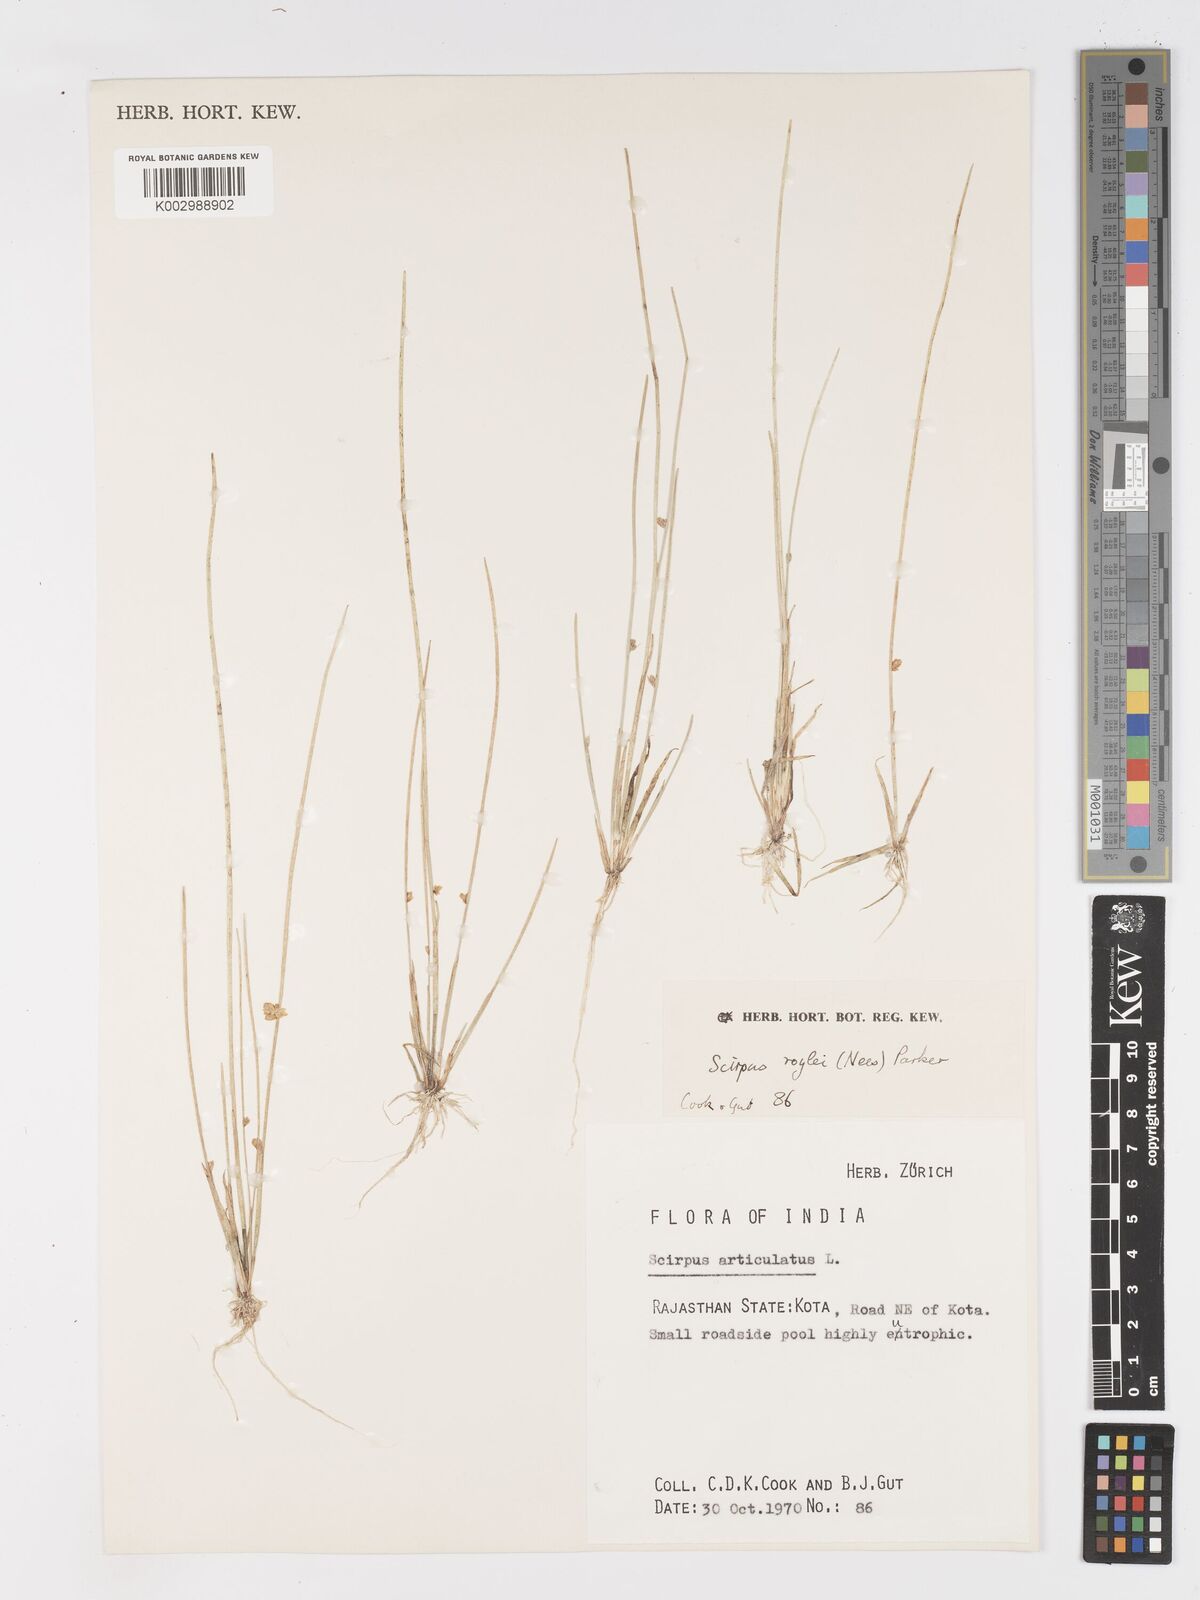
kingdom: Plantae
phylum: Tracheophyta
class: Liliopsida
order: Poales
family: Cyperaceae
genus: Schoenoplectiella
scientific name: Schoenoplectiella roylei
